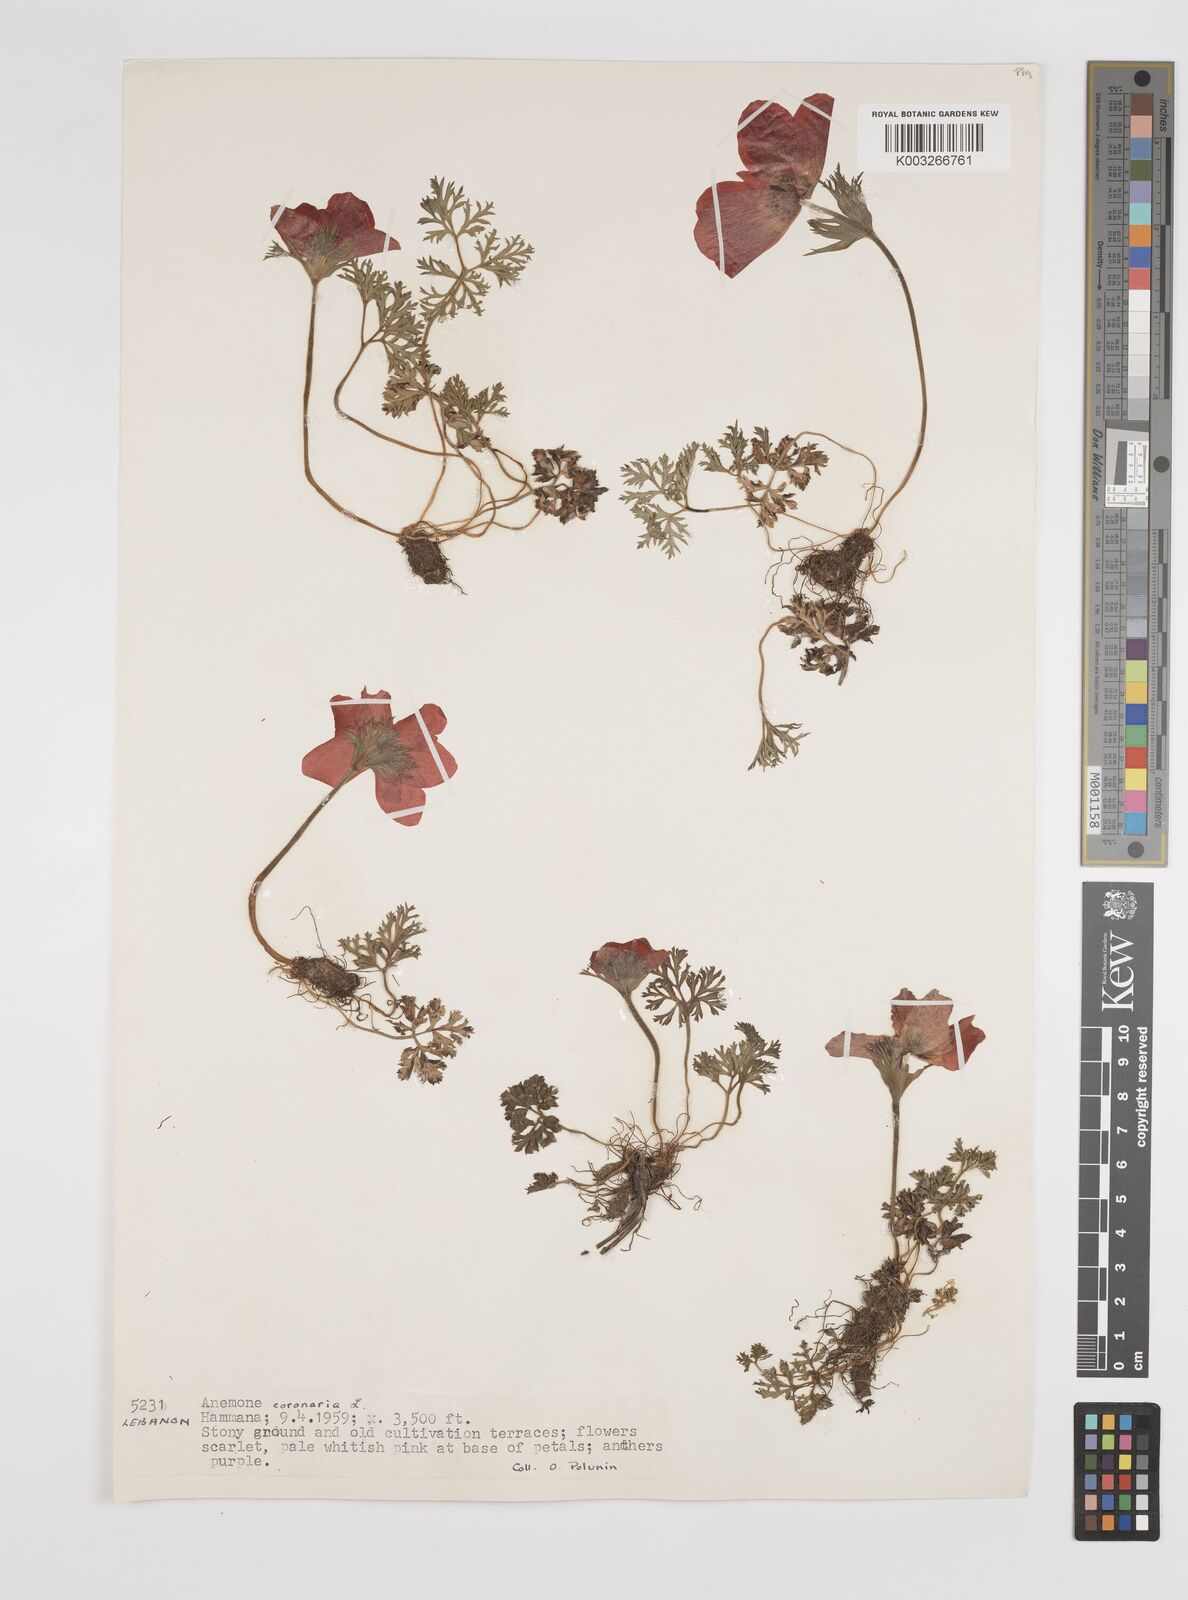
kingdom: Plantae
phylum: Tracheophyta
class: Magnoliopsida
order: Ranunculales
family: Ranunculaceae
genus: Anemone
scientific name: Anemone coronaria
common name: Poppy anemone
